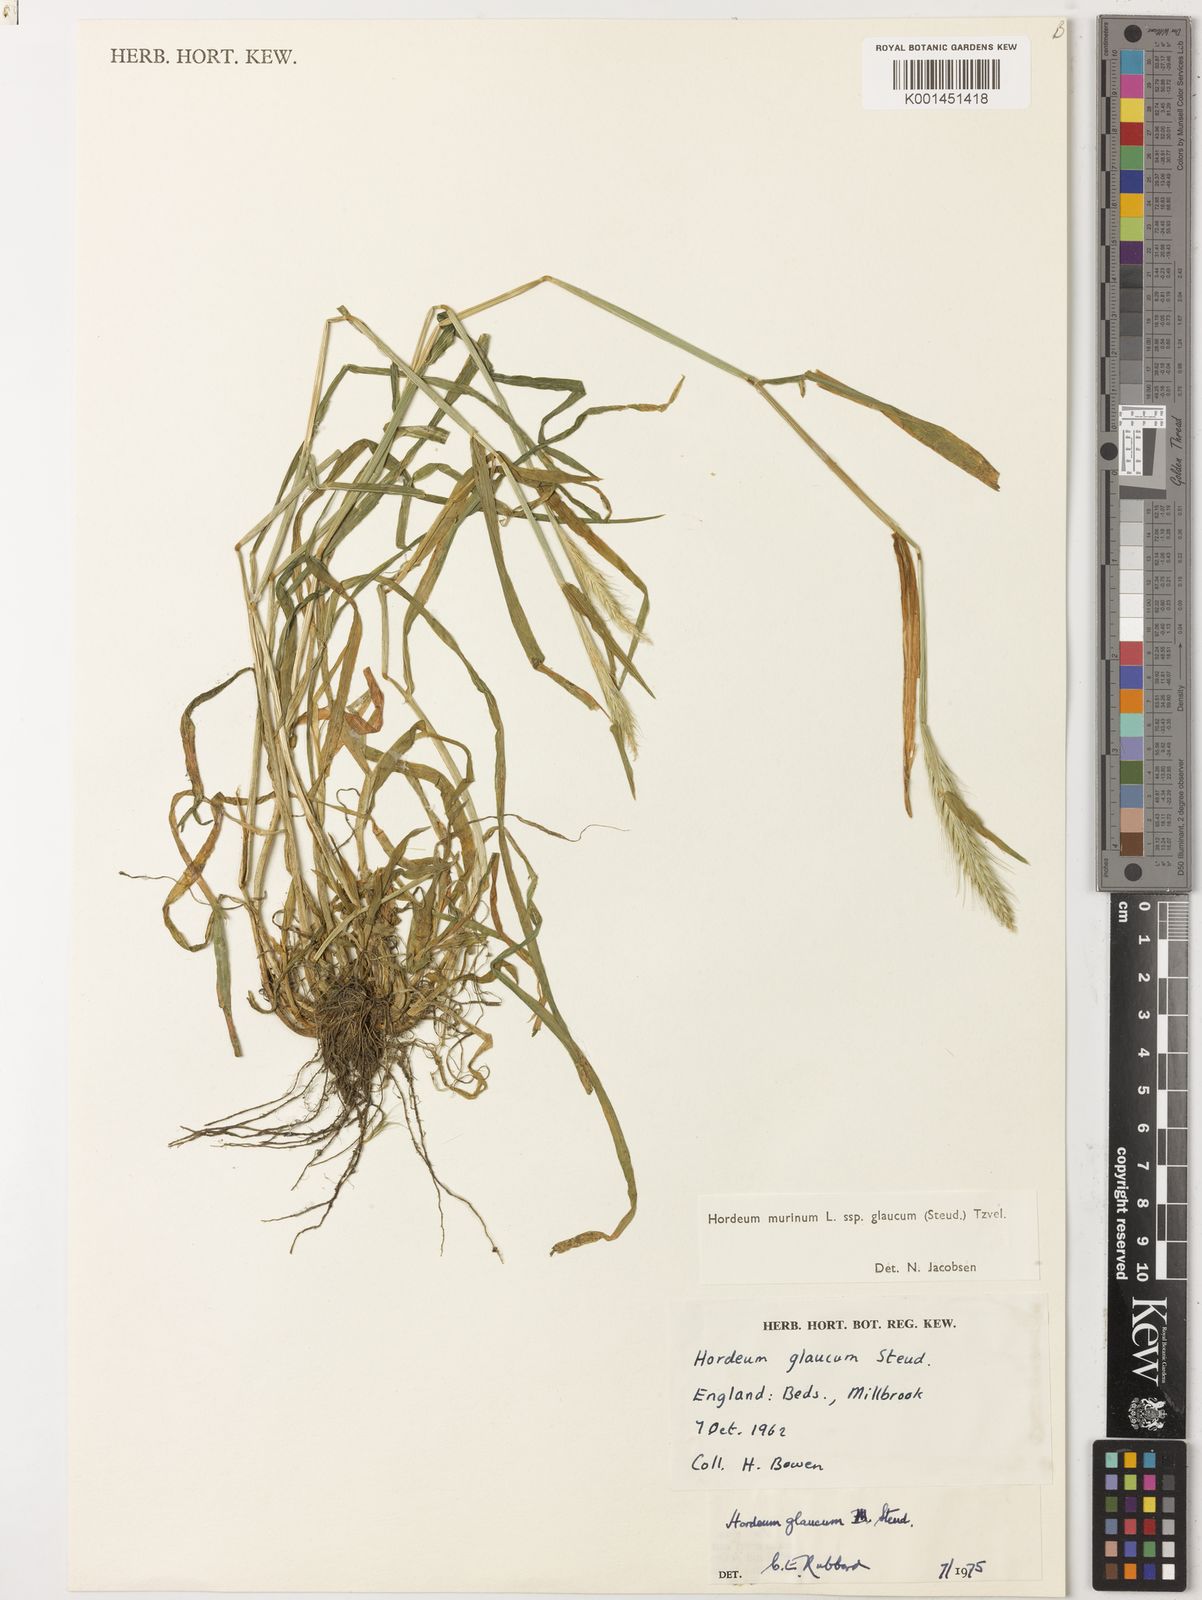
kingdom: Plantae
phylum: Tracheophyta
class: Liliopsida
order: Poales
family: Poaceae
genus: Hordeum
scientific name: Hordeum murinum
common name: Wall barley
